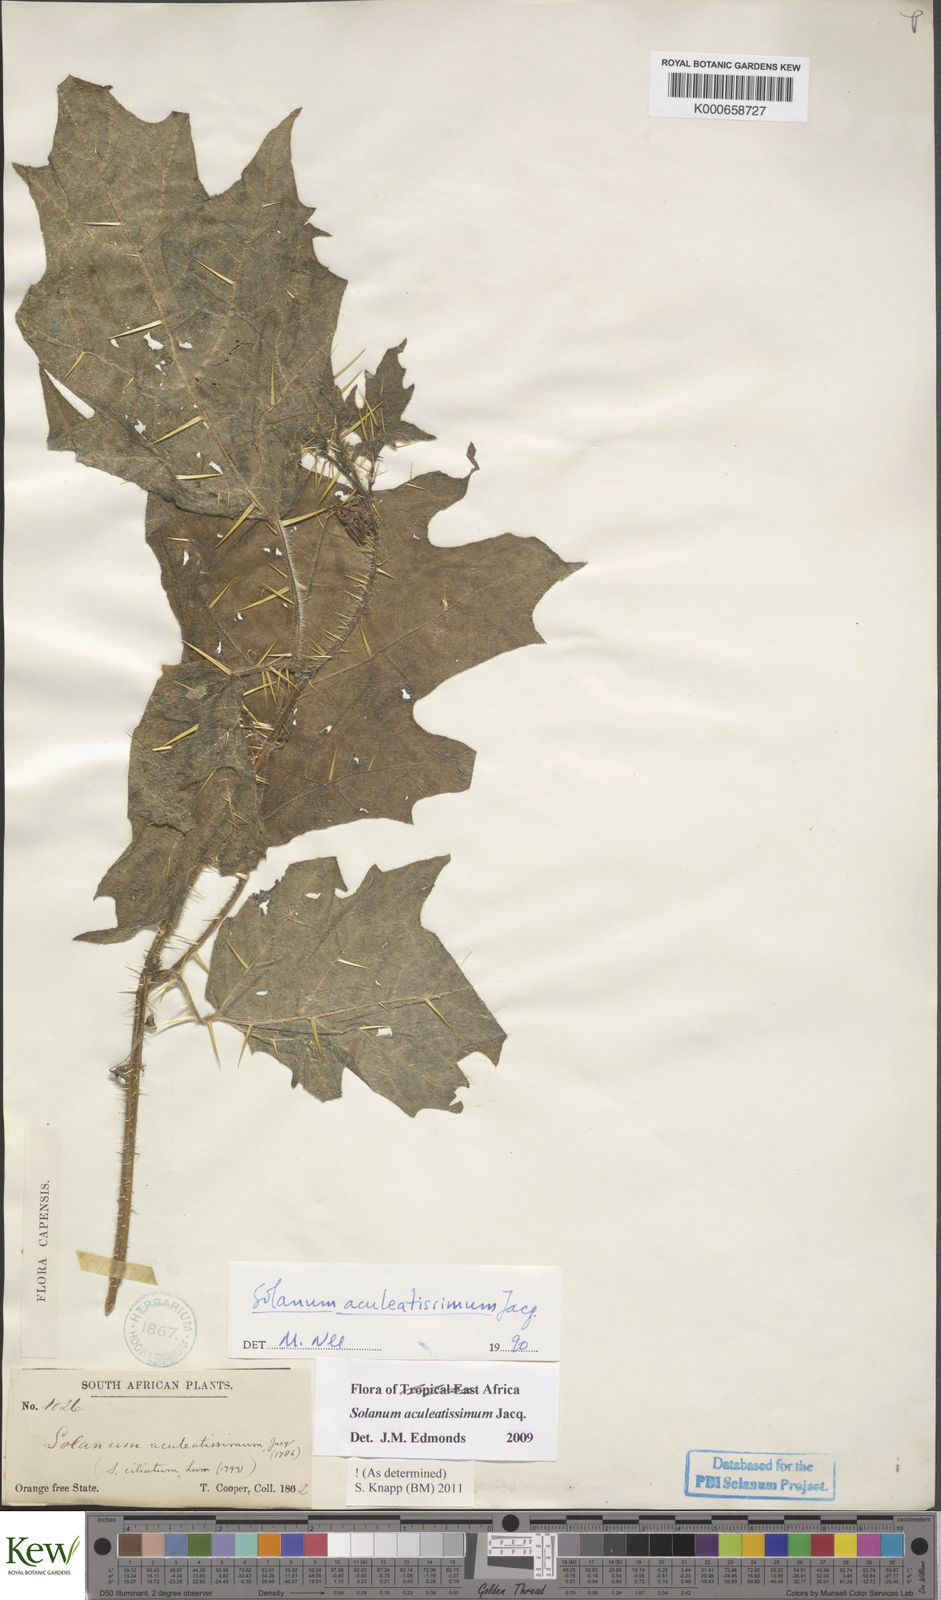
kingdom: Plantae
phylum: Tracheophyta
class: Magnoliopsida
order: Solanales
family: Solanaceae
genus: Solanum
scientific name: Solanum aculeatissimum
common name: Dutch eggplant
